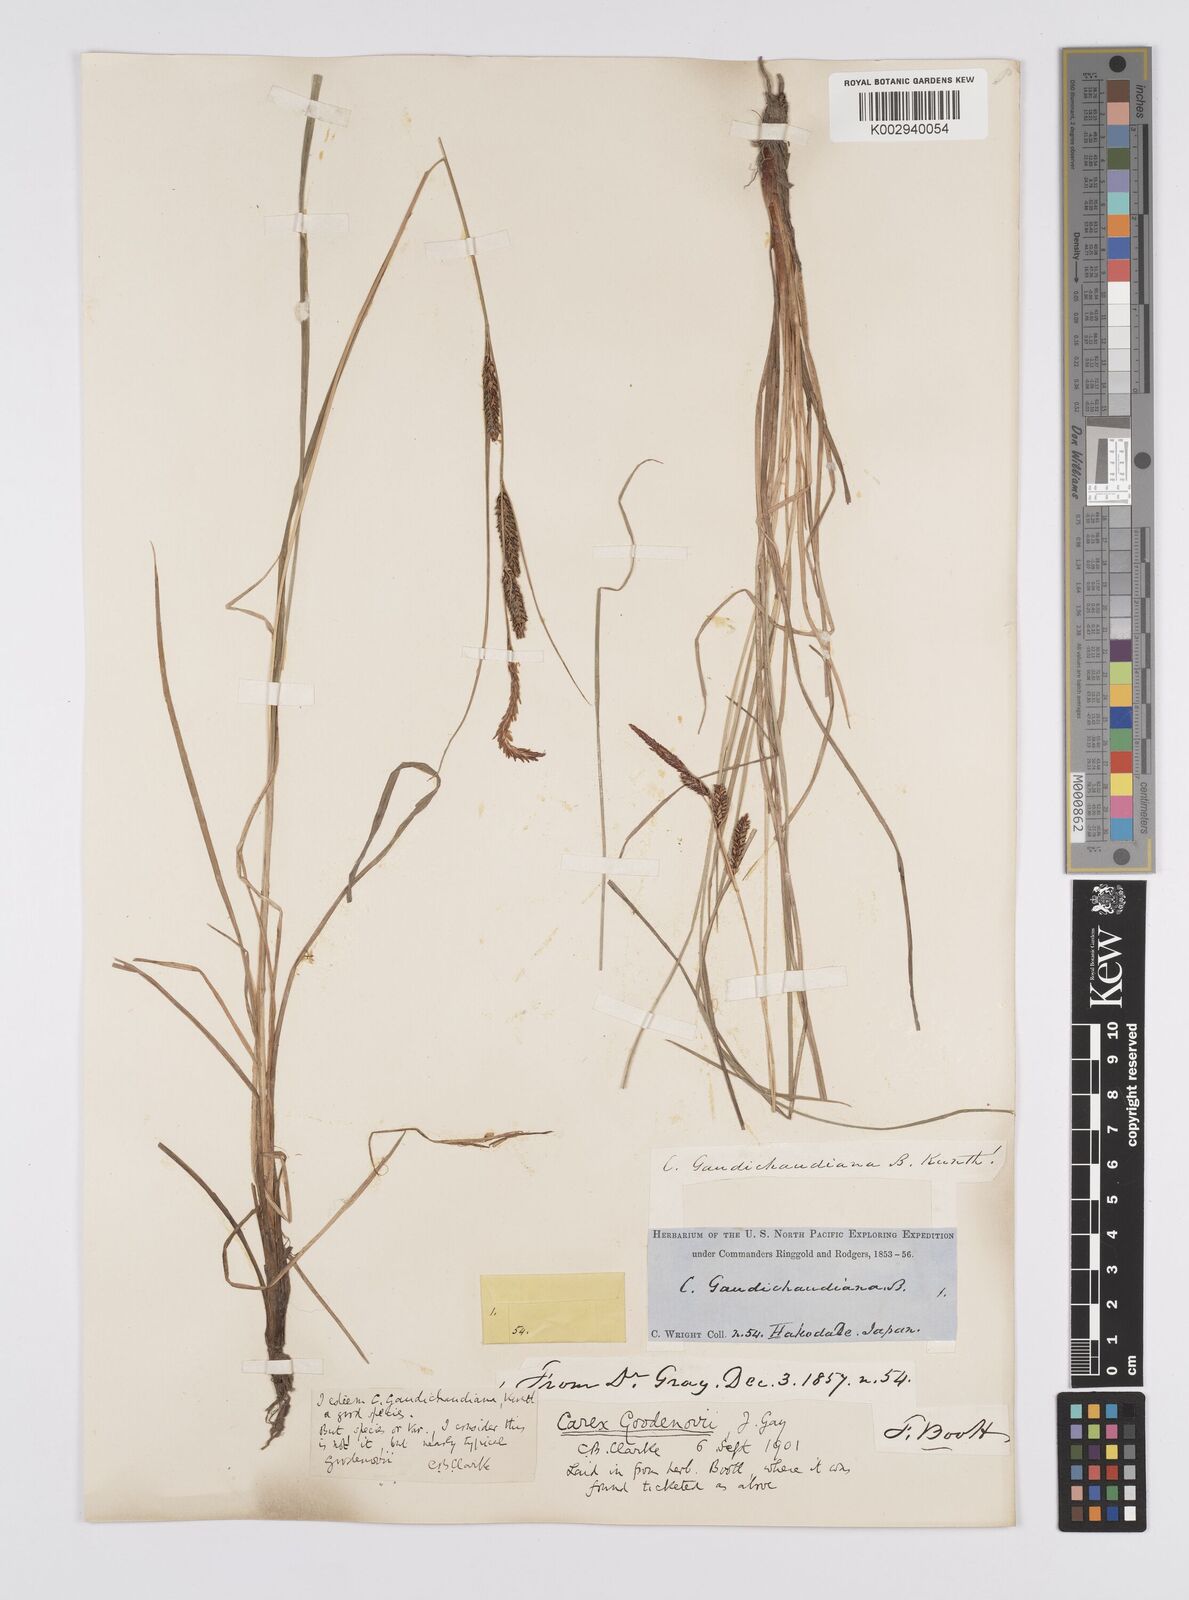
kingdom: Plantae
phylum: Tracheophyta
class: Liliopsida
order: Poales
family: Cyperaceae
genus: Carex
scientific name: Carex thunbergii
